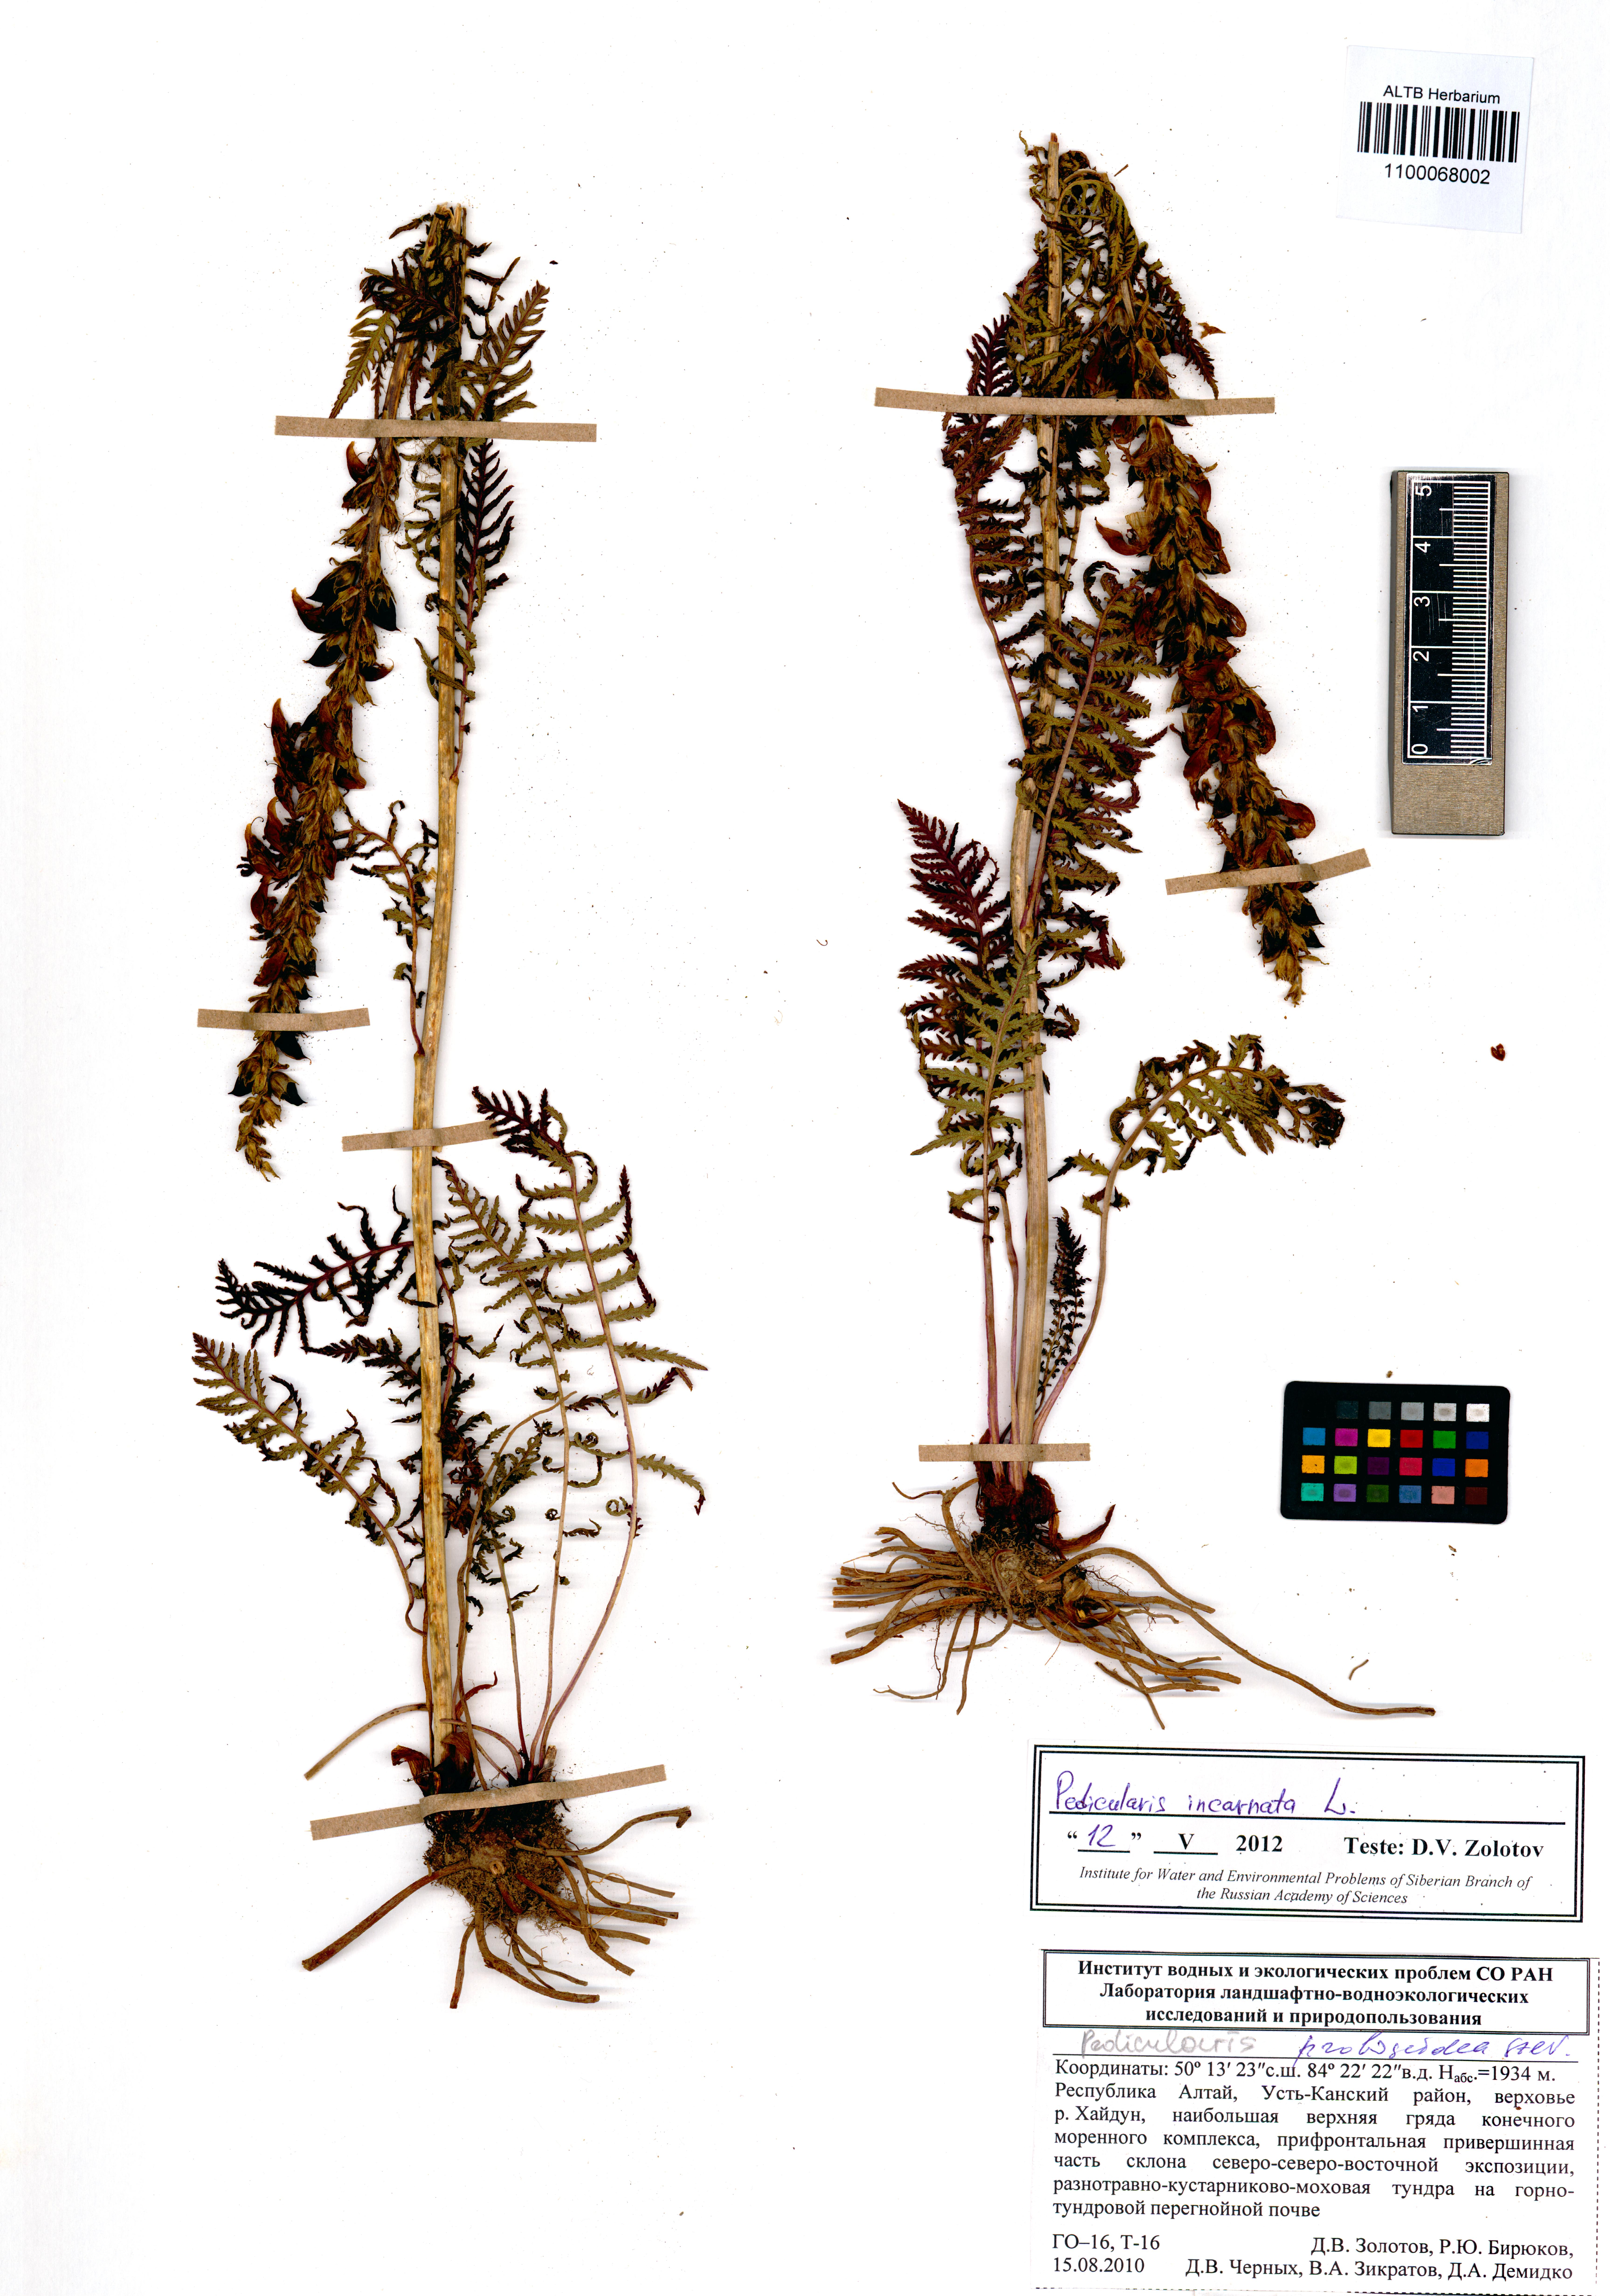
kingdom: Plantae
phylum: Tracheophyta
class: Magnoliopsida
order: Lamiales
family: Orobanchaceae
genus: Pedicularis
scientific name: Pedicularis incarnata
